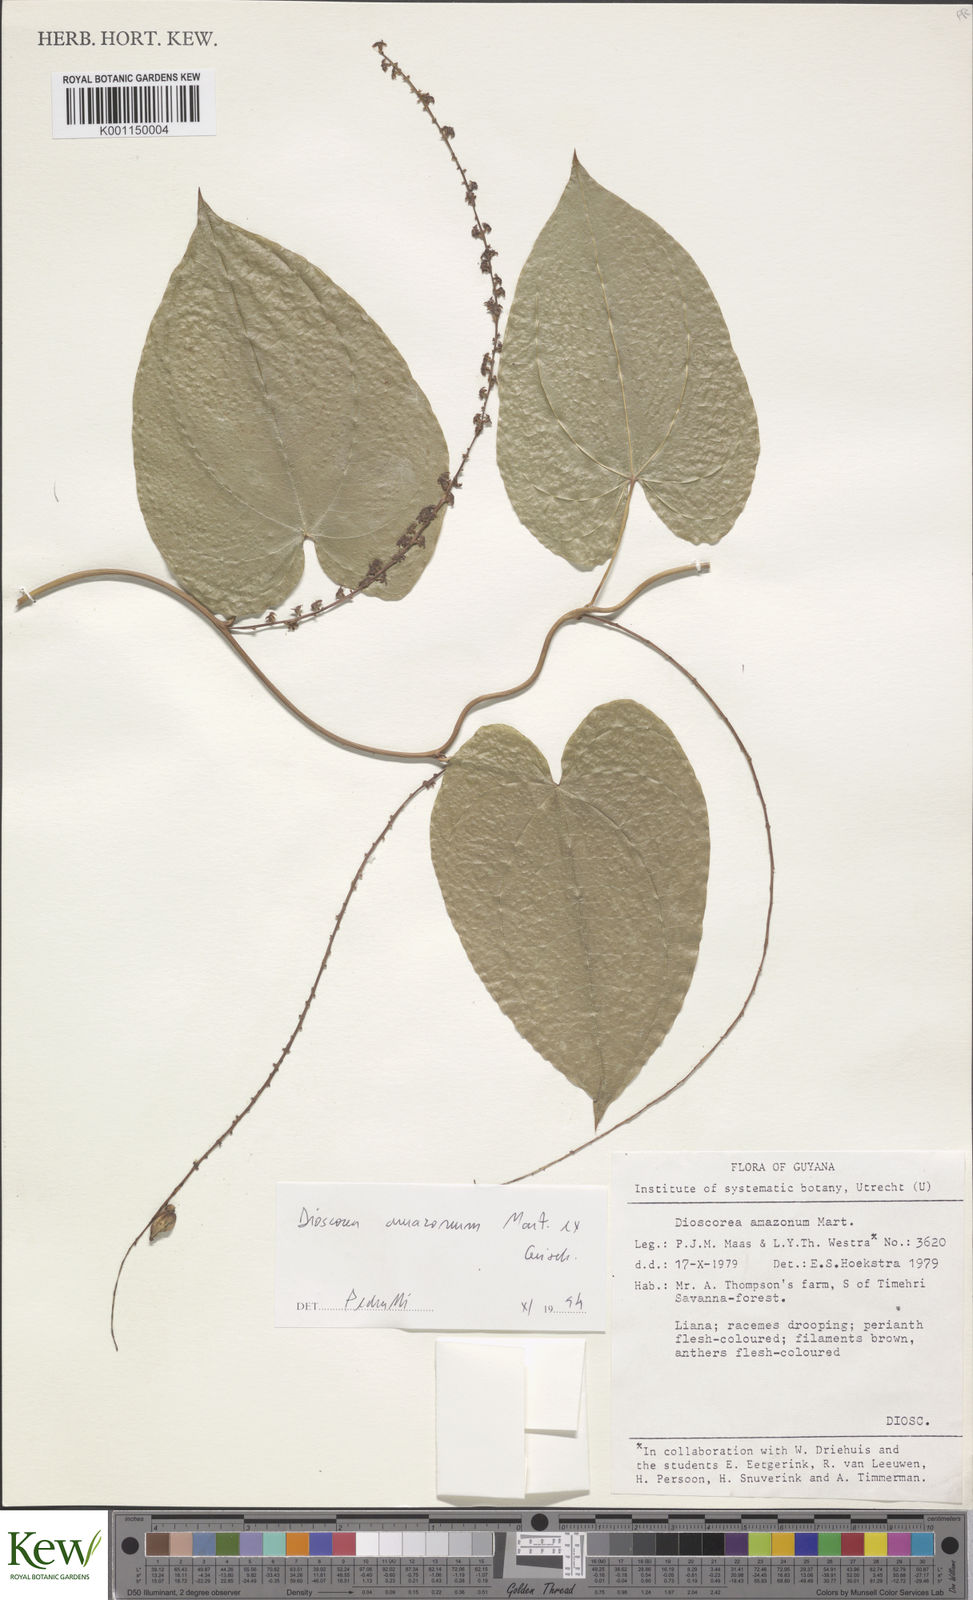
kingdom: Plantae
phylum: Tracheophyta
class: Liliopsida
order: Dioscoreales
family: Dioscoreaceae
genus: Dioscorea
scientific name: Dioscorea amazonum
